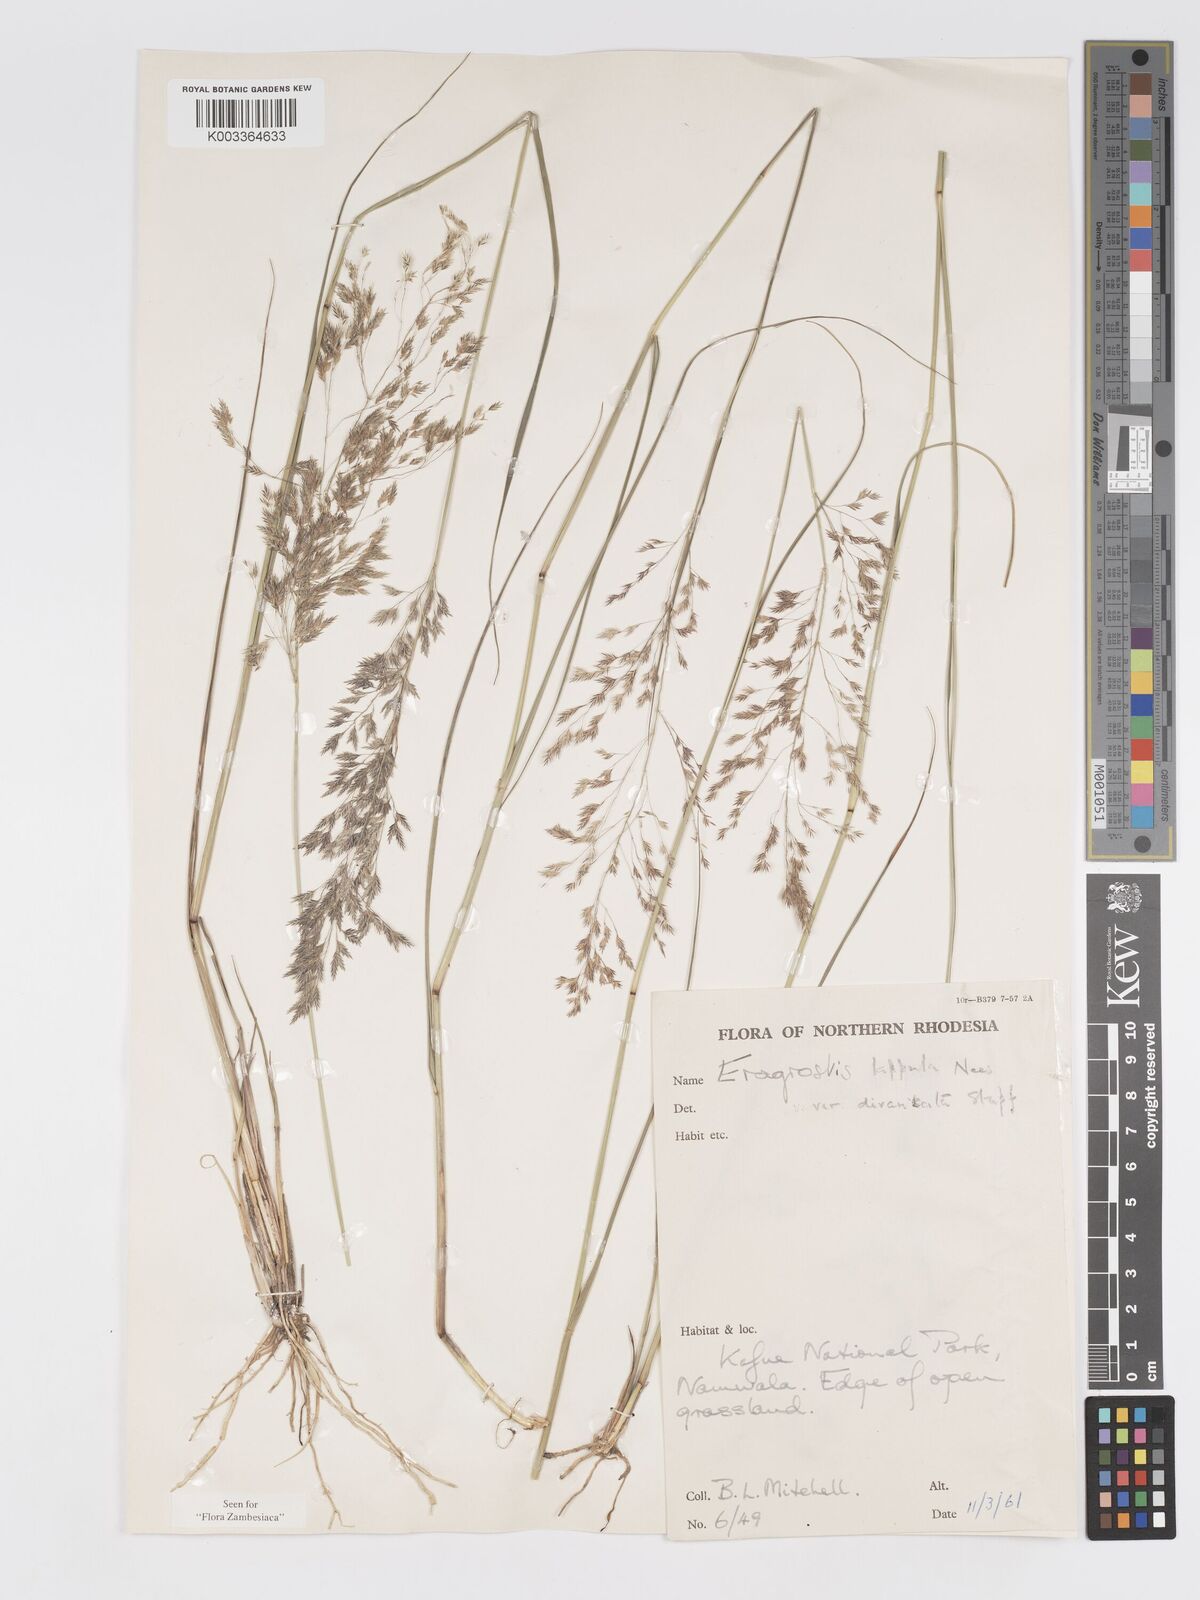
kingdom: Plantae
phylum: Tracheophyta
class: Liliopsida
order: Poales
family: Poaceae
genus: Eragrostis
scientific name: Eragrostis lappula
